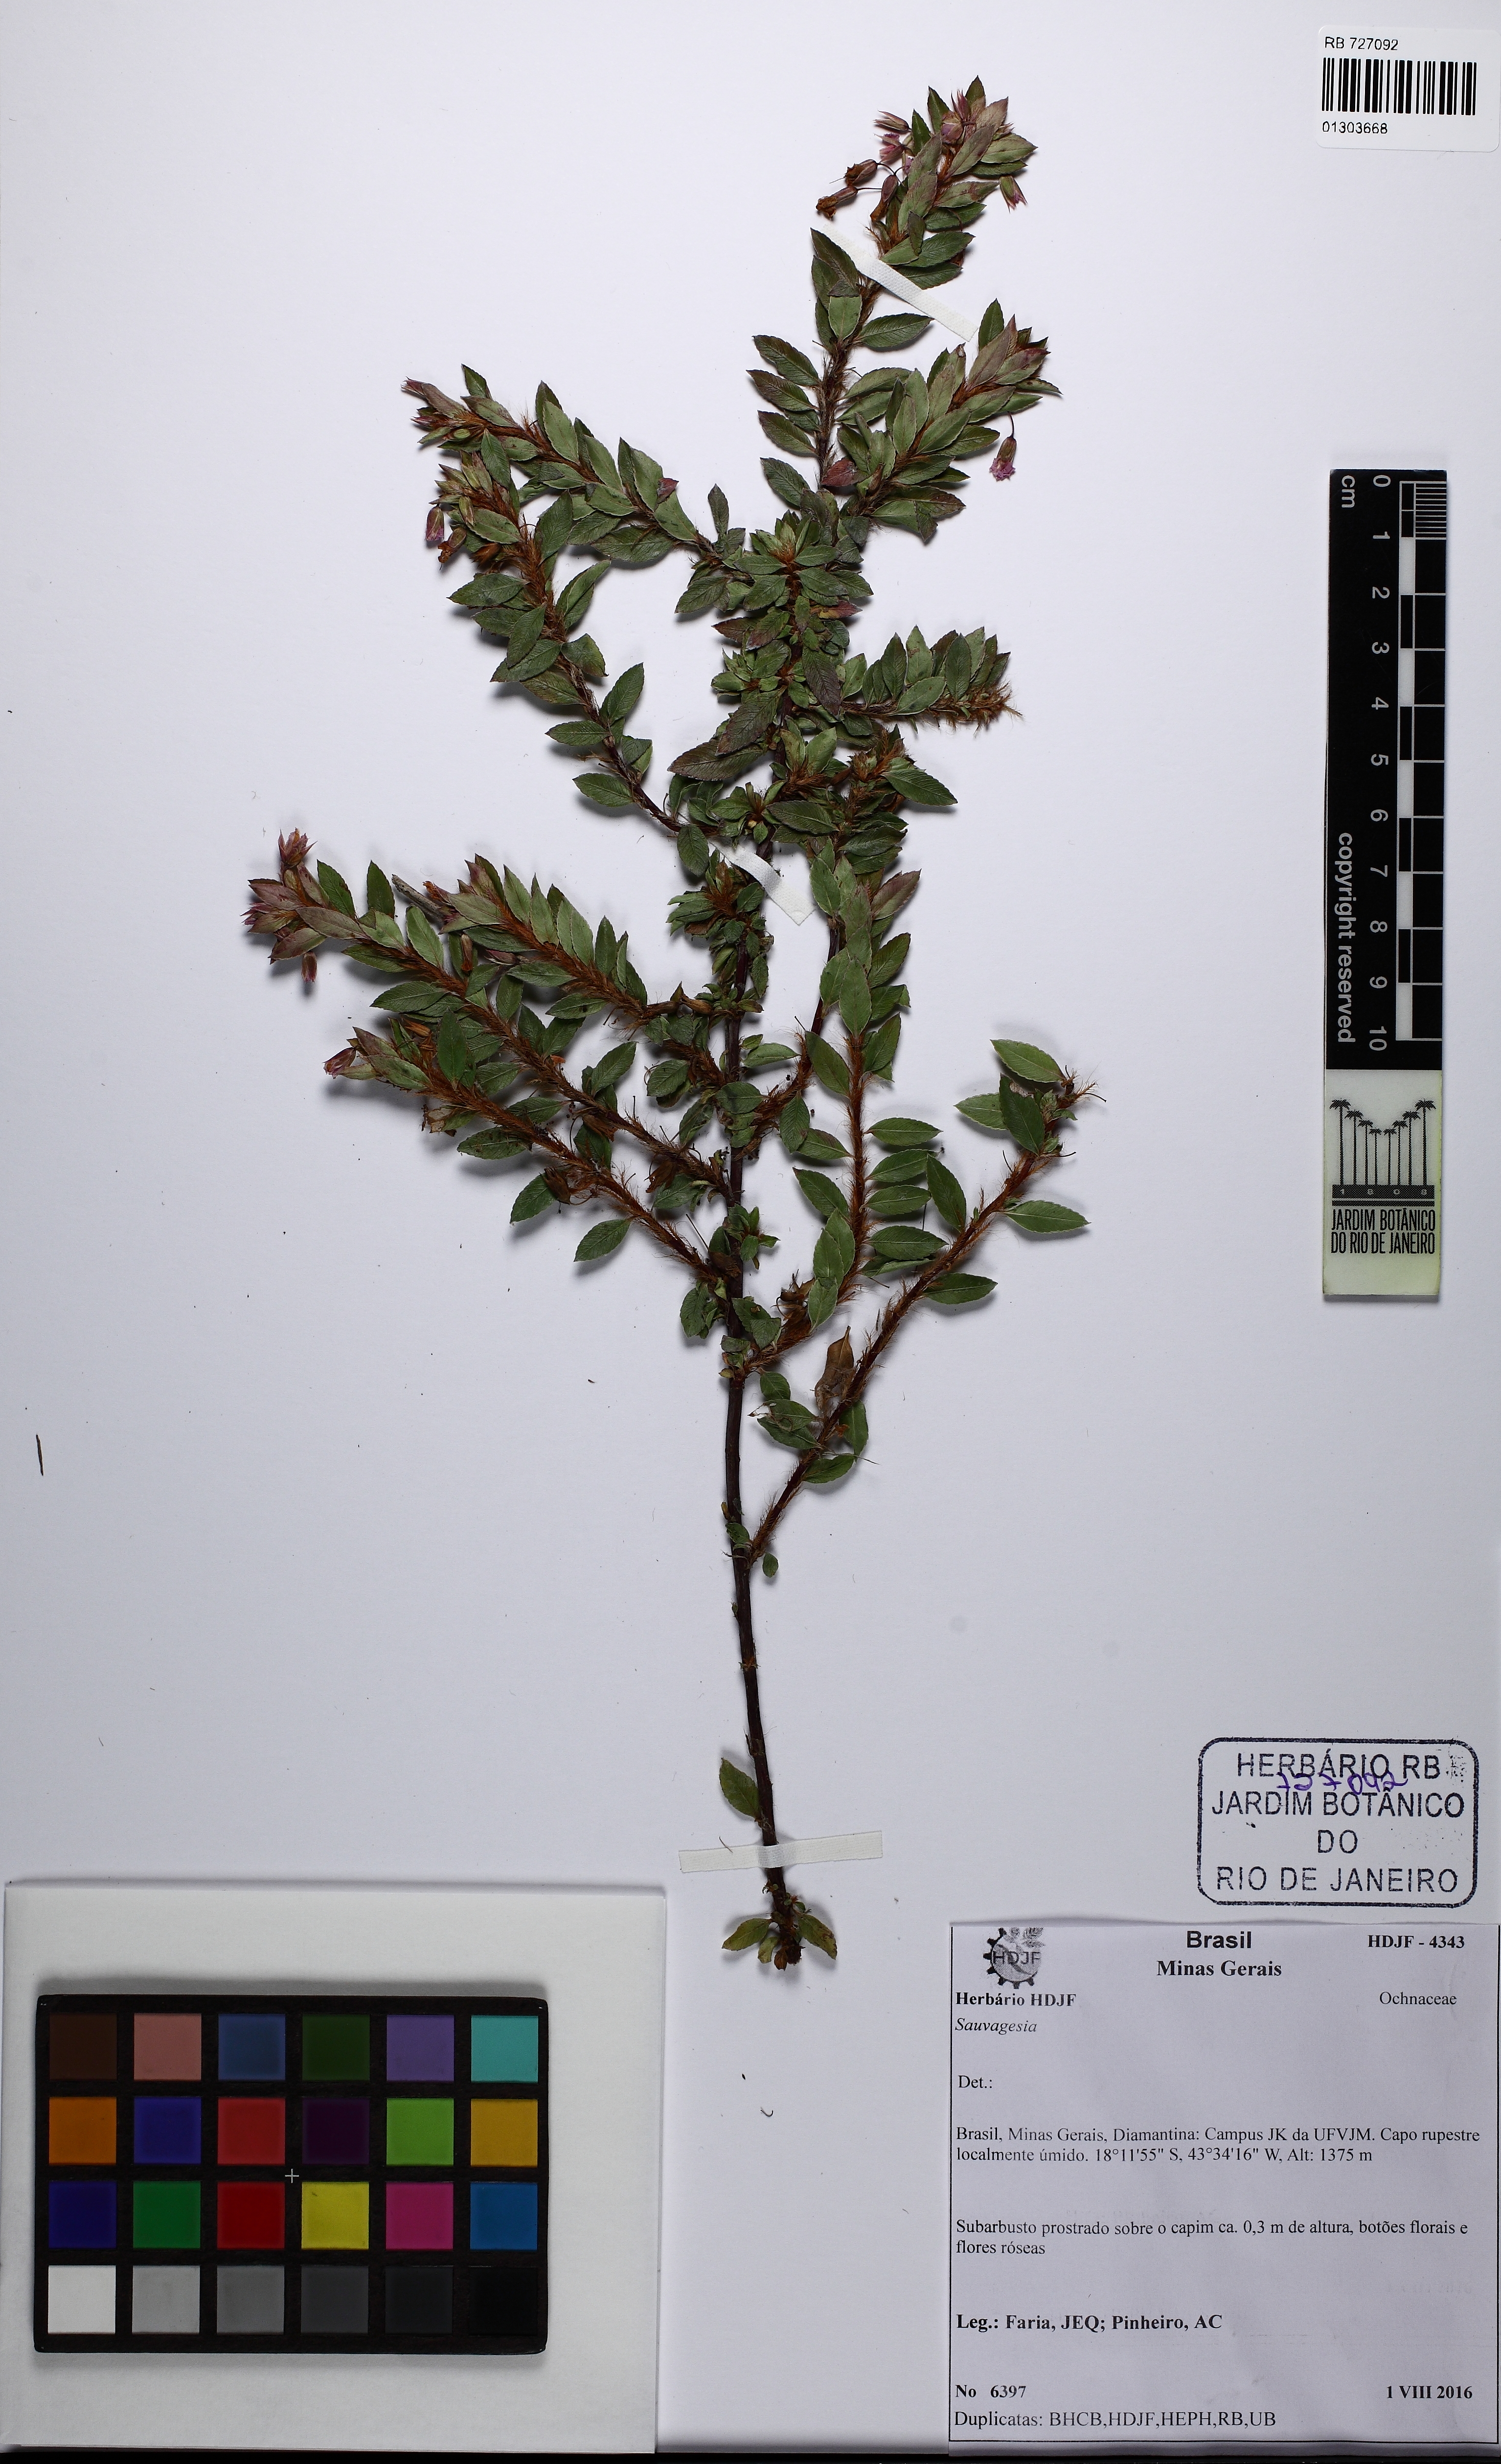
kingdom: Plantae
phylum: Tracheophyta
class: Magnoliopsida
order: Malpighiales
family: Ochnaceae
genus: Sauvagesia
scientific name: Sauvagesia
